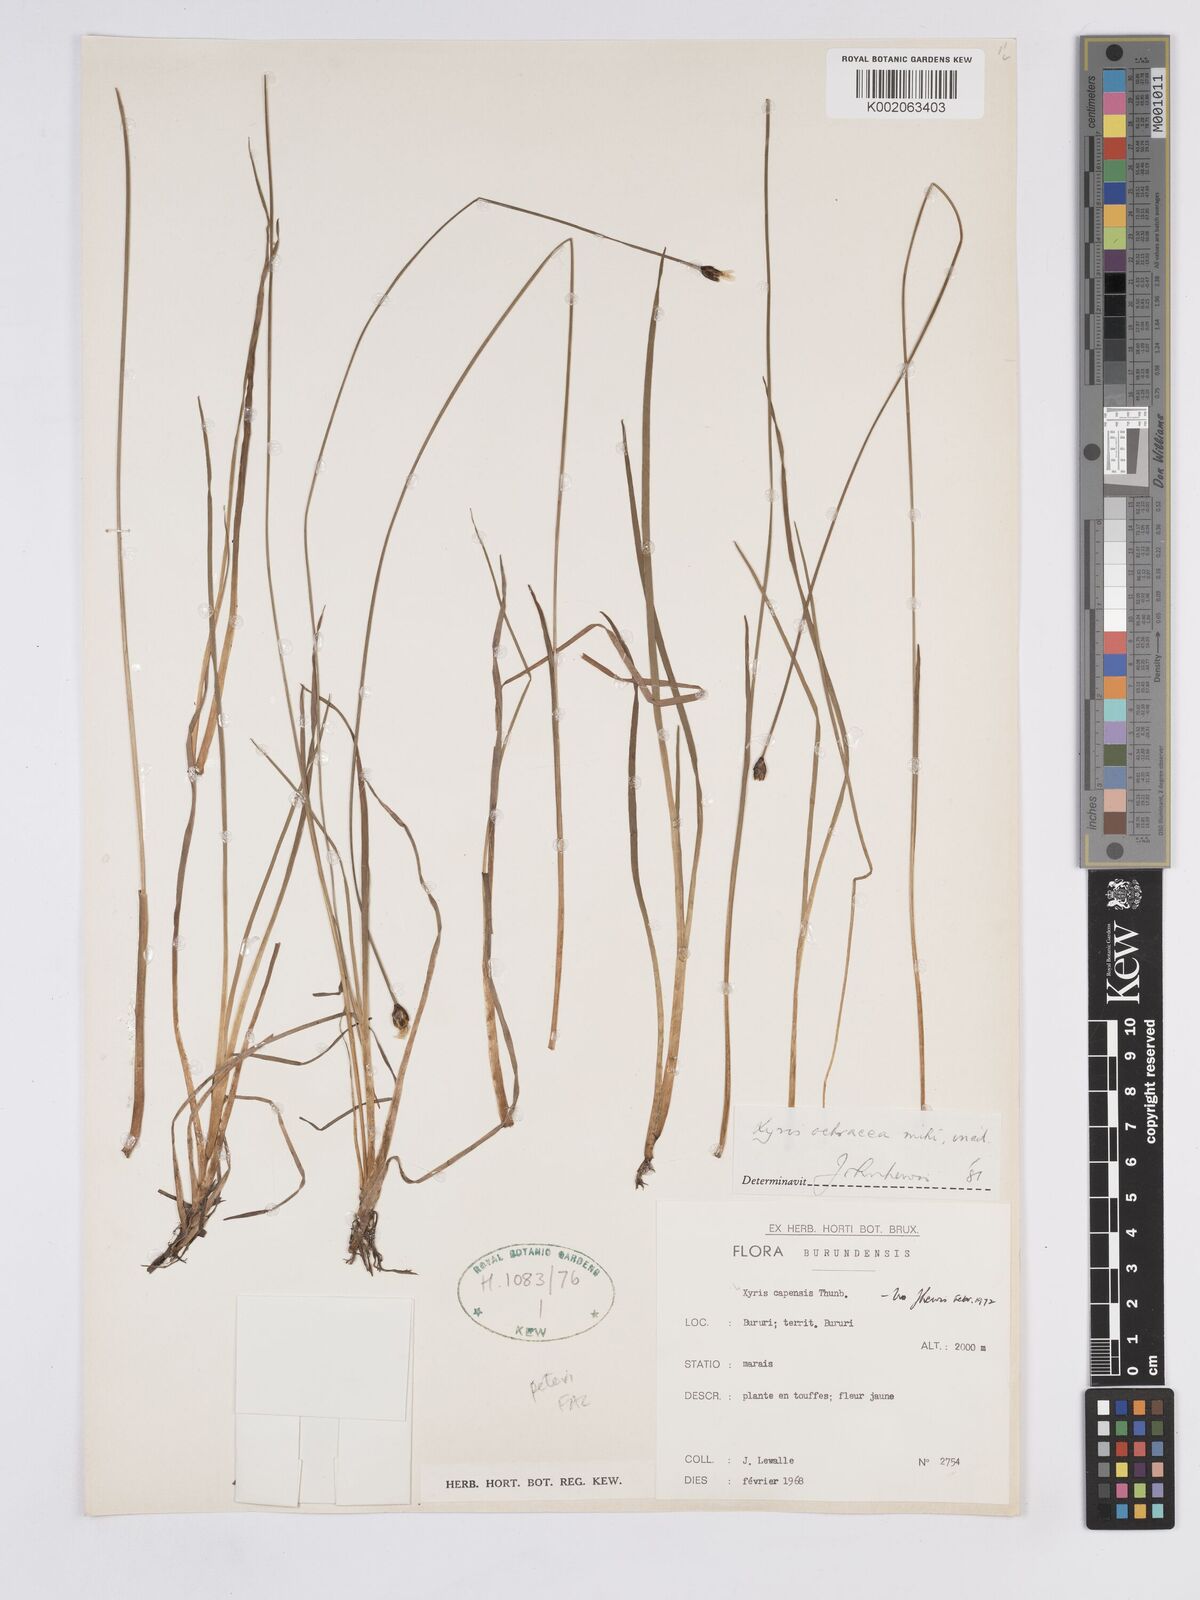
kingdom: Plantae
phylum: Tracheophyta
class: Liliopsida
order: Poales
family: Xyridaceae
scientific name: Xyridaceae
